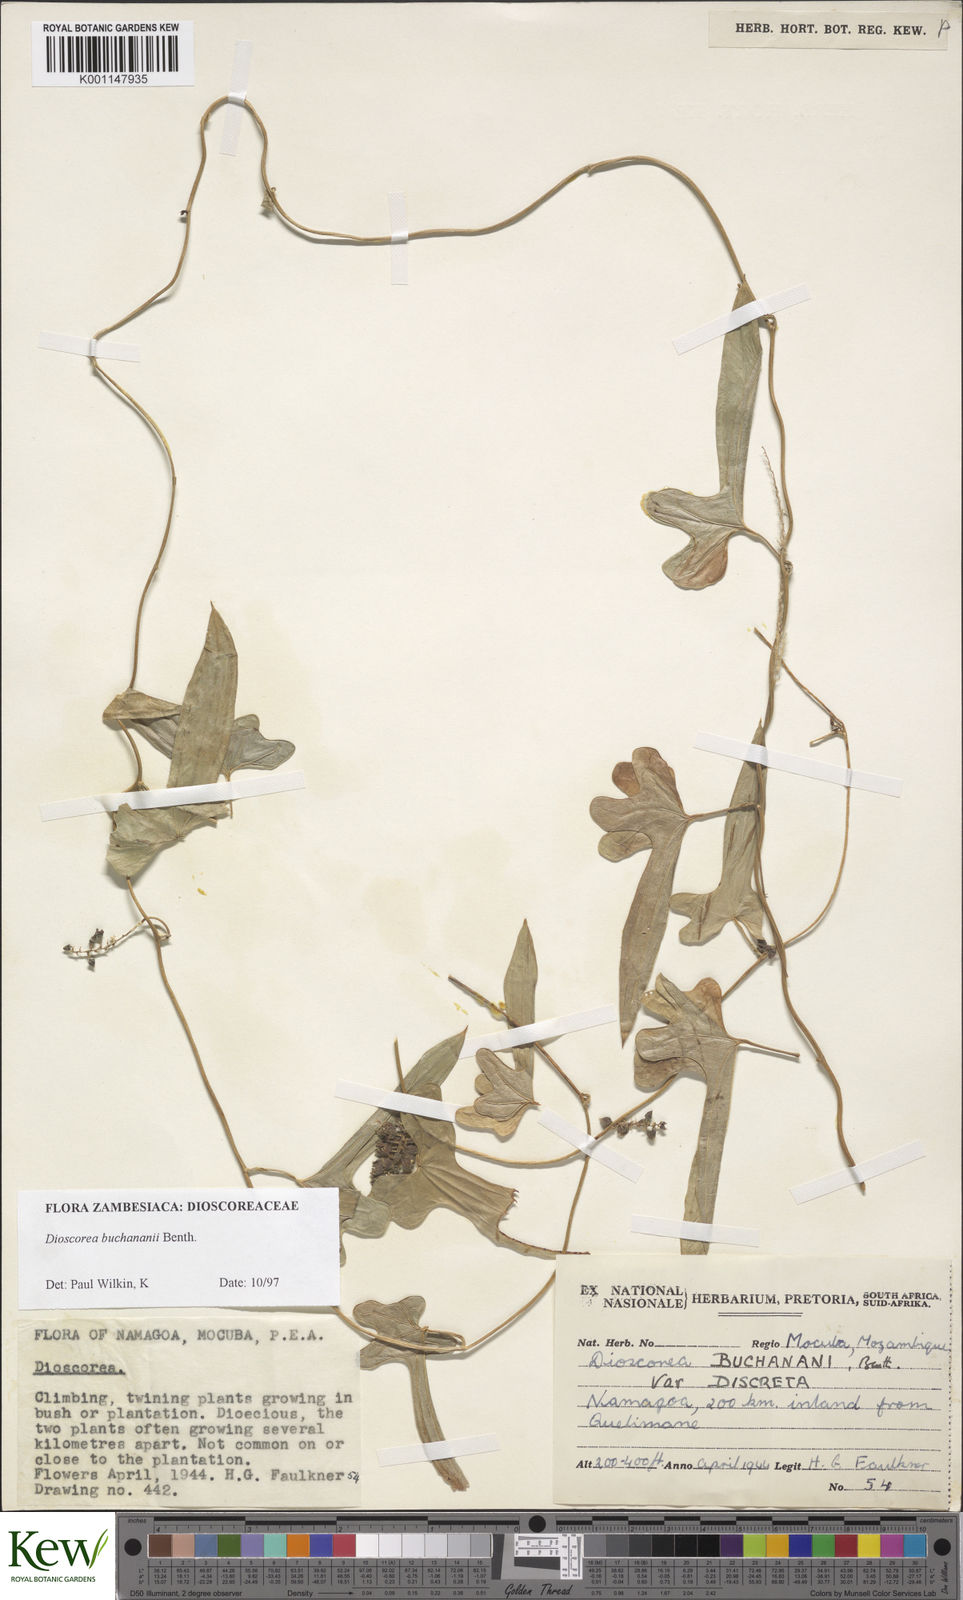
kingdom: Plantae
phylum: Tracheophyta
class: Liliopsida
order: Dioscoreales
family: Dioscoreaceae
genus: Dioscorea
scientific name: Dioscorea buchananii
